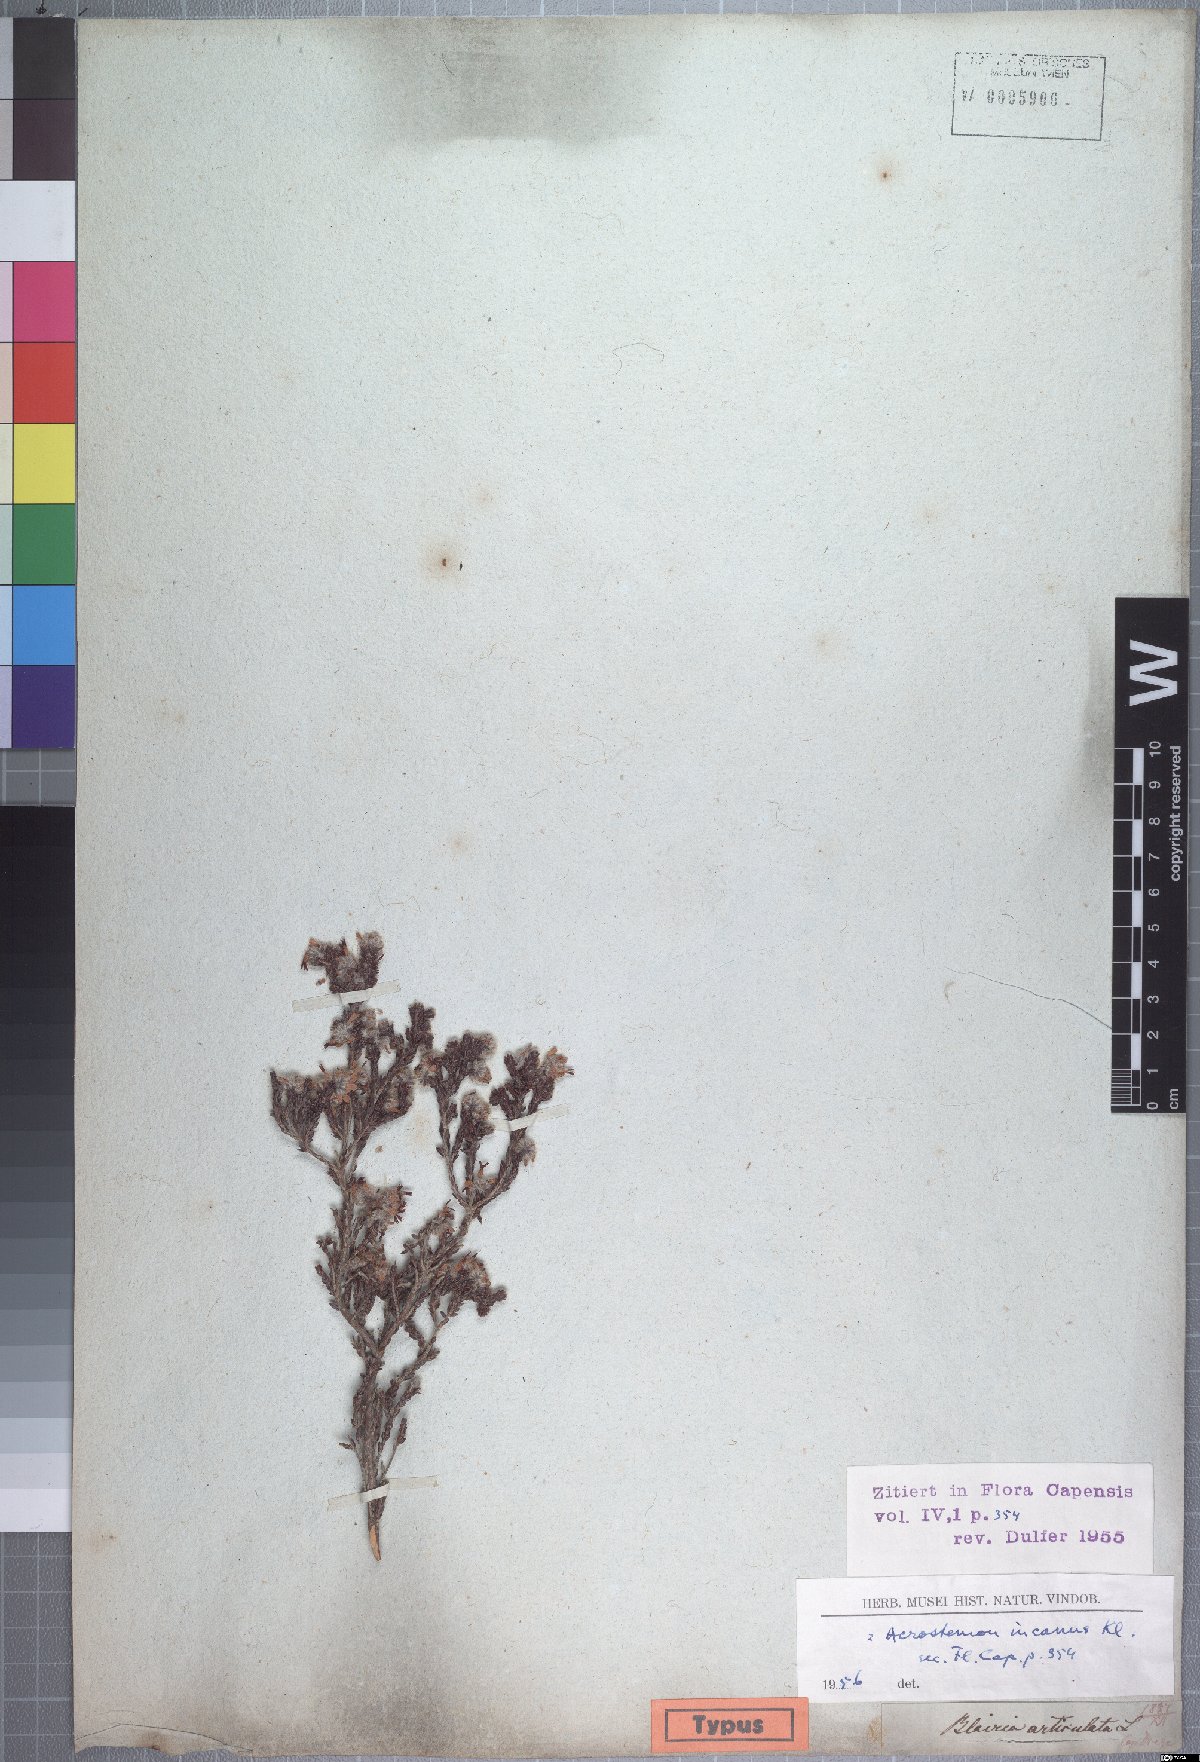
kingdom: Plantae
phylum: Tracheophyta
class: Magnoliopsida
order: Ericales
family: Ericaceae
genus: Erica
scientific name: Erica eriocephala
